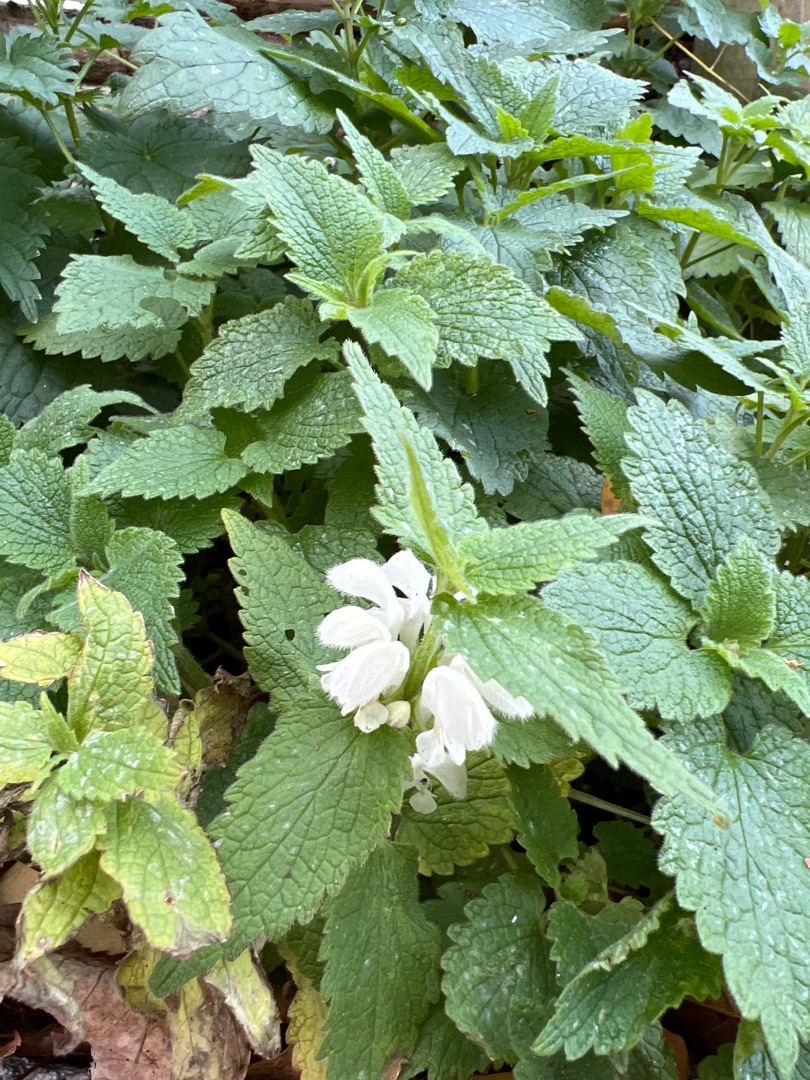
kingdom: Plantae
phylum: Tracheophyta
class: Magnoliopsida
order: Lamiales
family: Lamiaceae
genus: Lamium
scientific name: Lamium album
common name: Døvnælde
